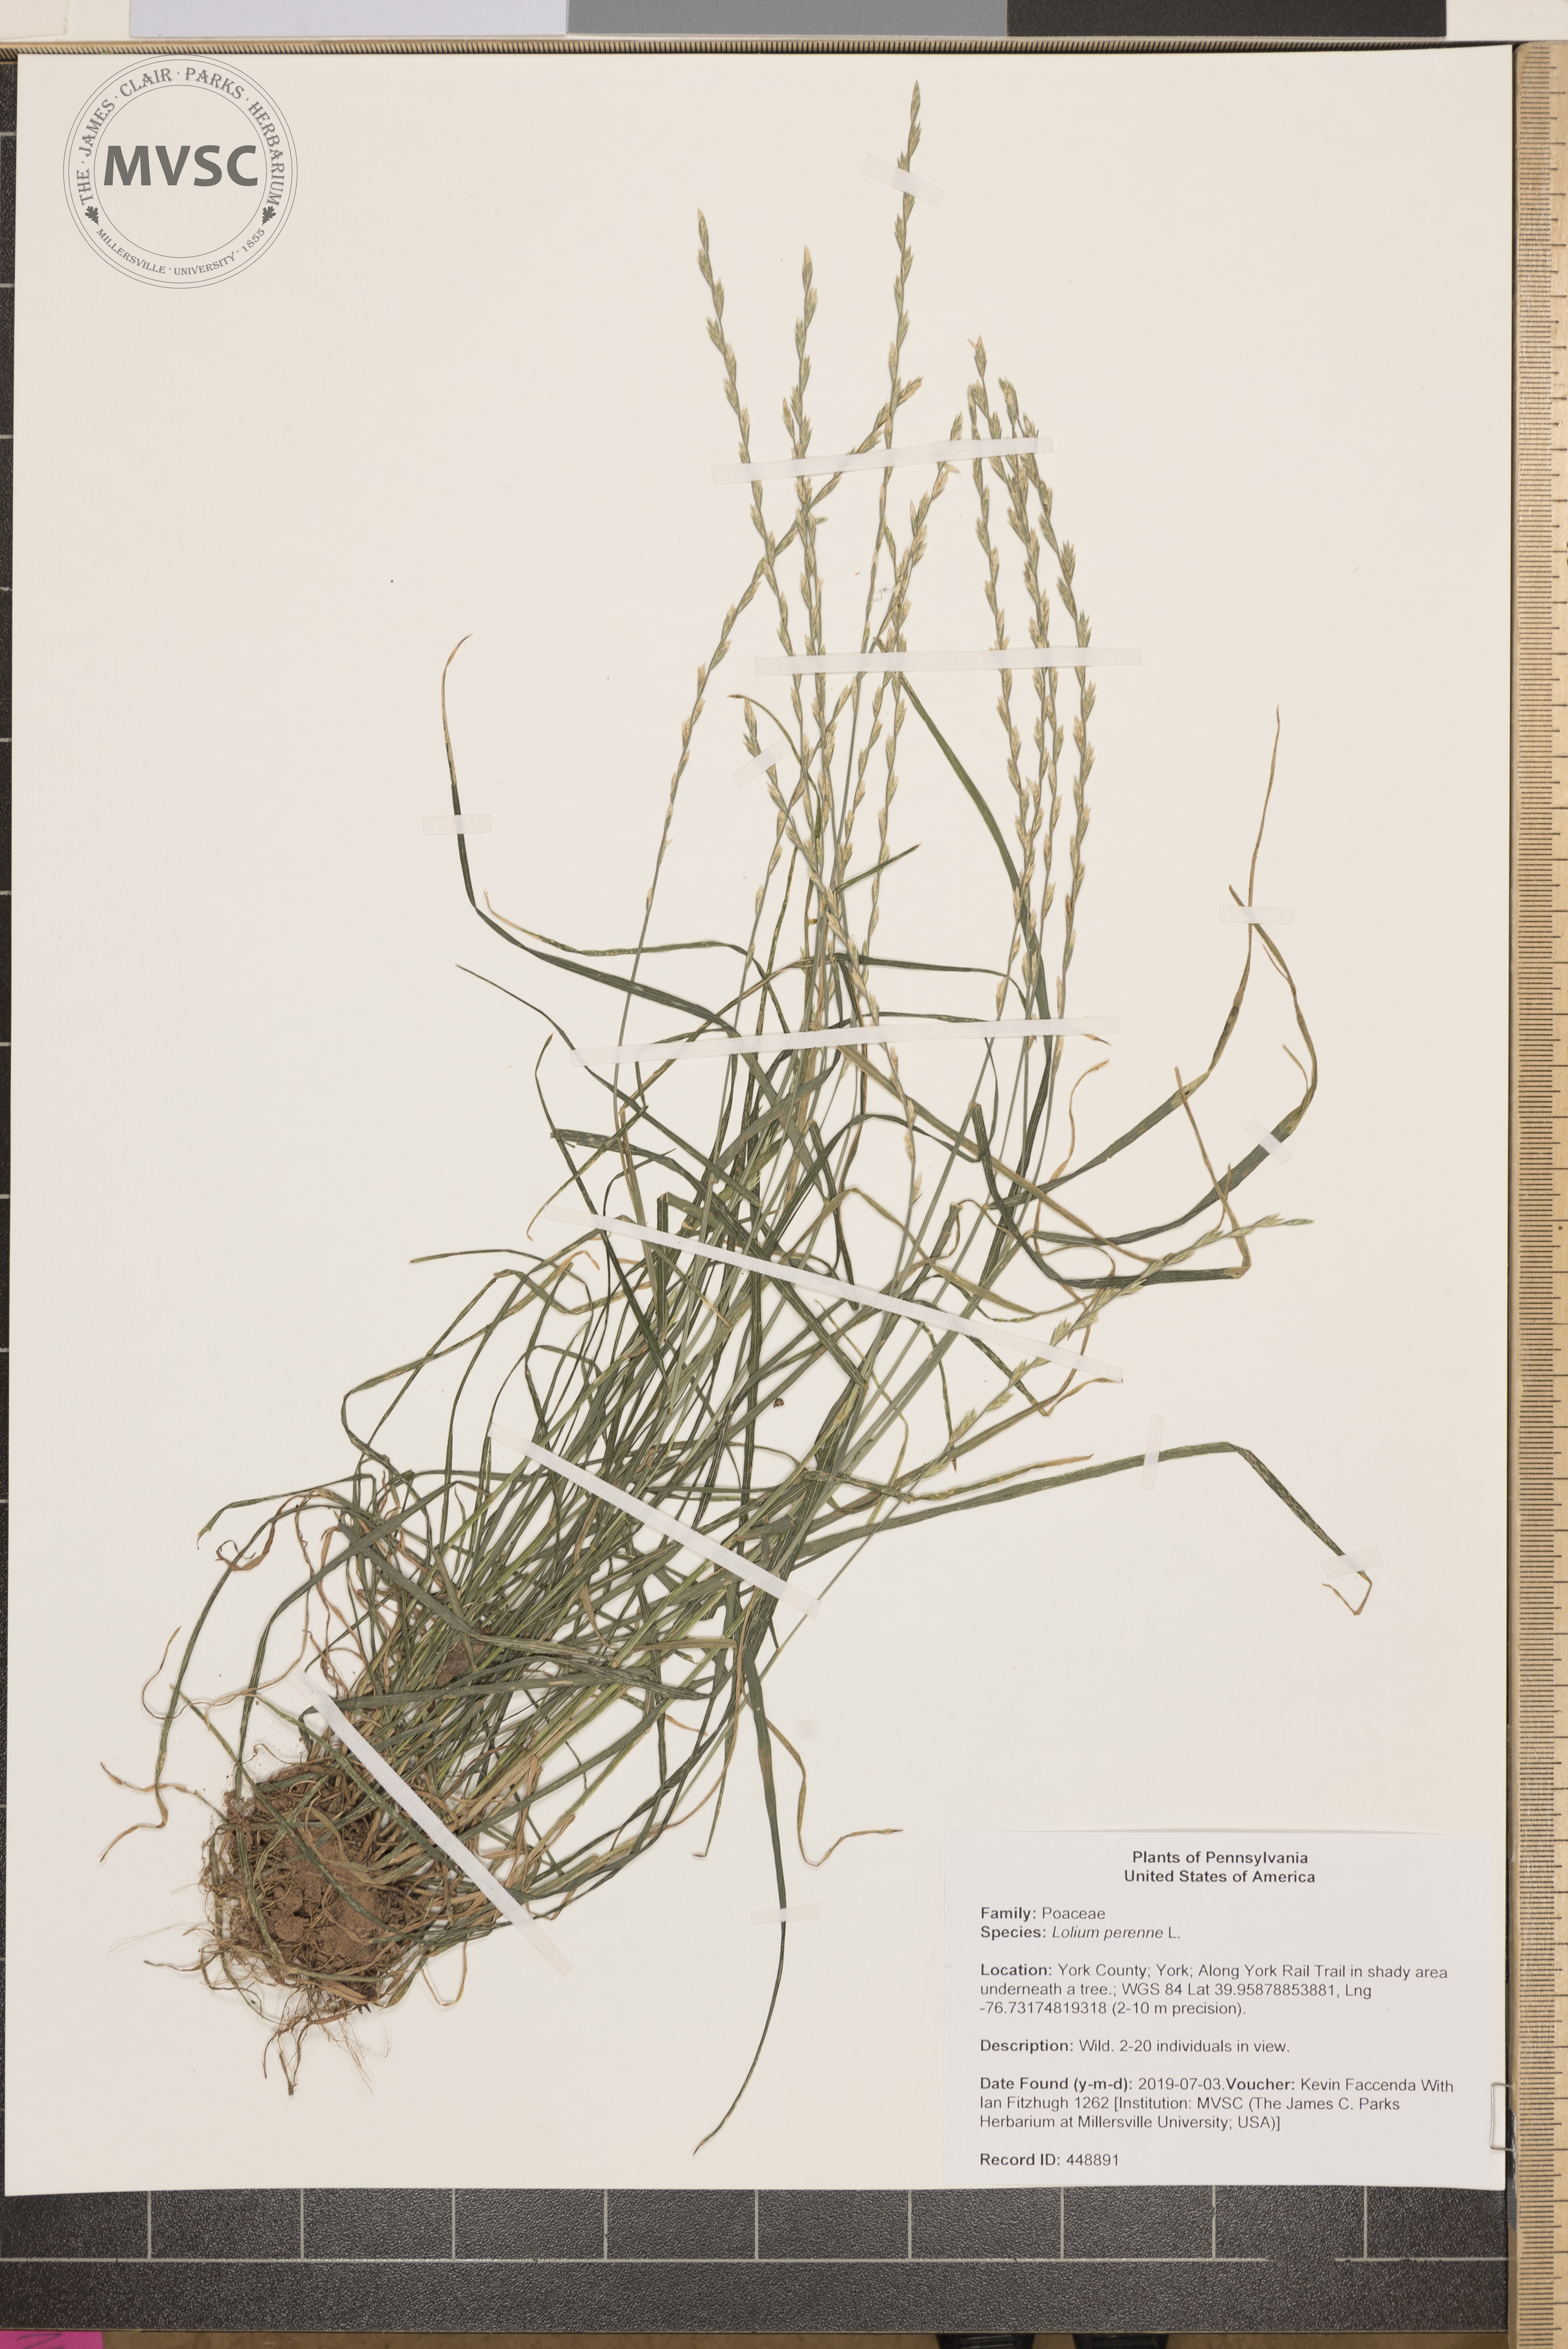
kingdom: Plantae
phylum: Tracheophyta
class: Liliopsida
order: Poales
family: Poaceae
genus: Lolium
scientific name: Lolium perenne
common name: Perennial ryegrass
